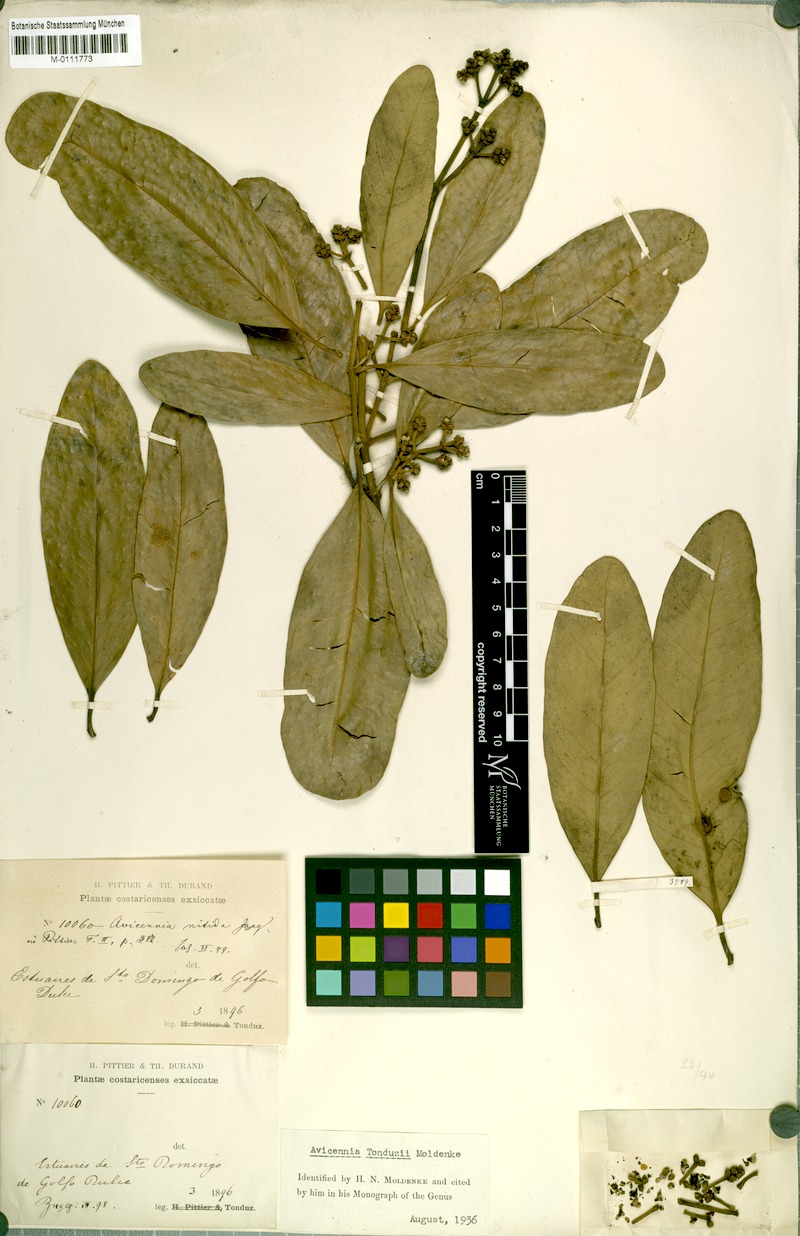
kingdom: Plantae
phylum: Tracheophyta
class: Magnoliopsida
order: Lamiales
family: Acanthaceae
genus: Avicennia
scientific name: Avicennia bicolor
